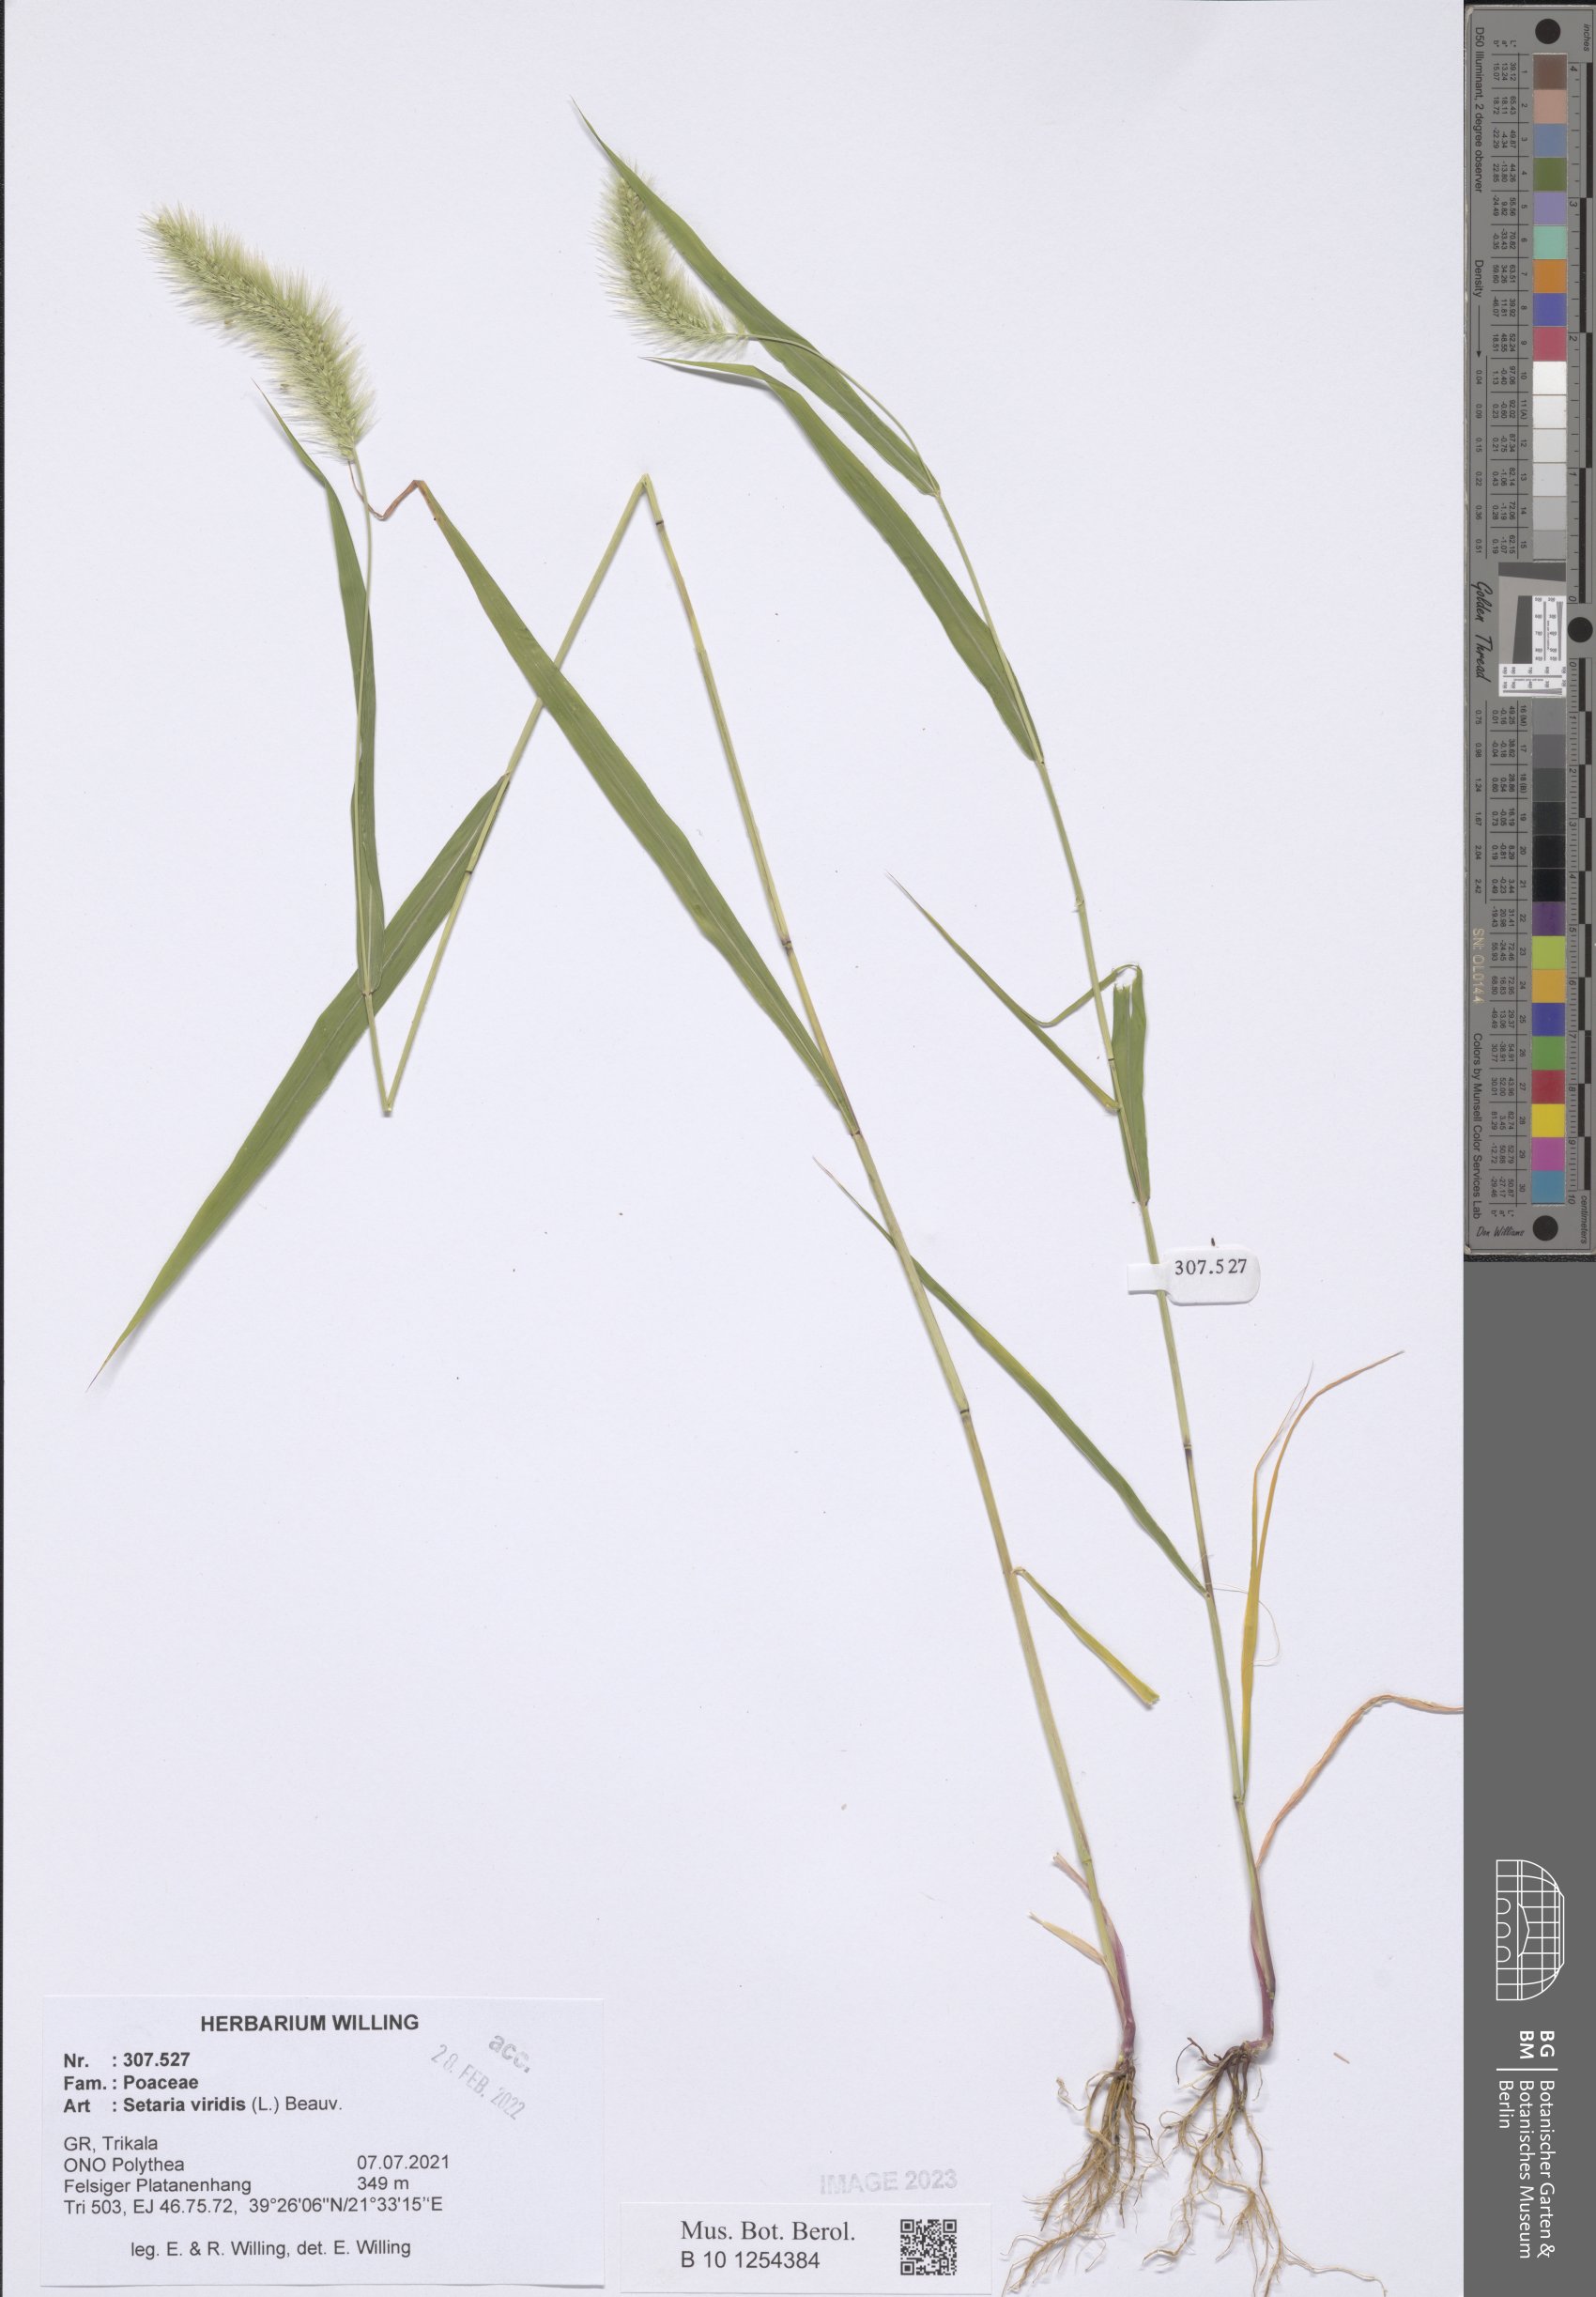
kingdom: Plantae
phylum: Tracheophyta
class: Liliopsida
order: Poales
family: Poaceae
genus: Setaria
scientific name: Setaria viridis
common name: Green bristlegrass
